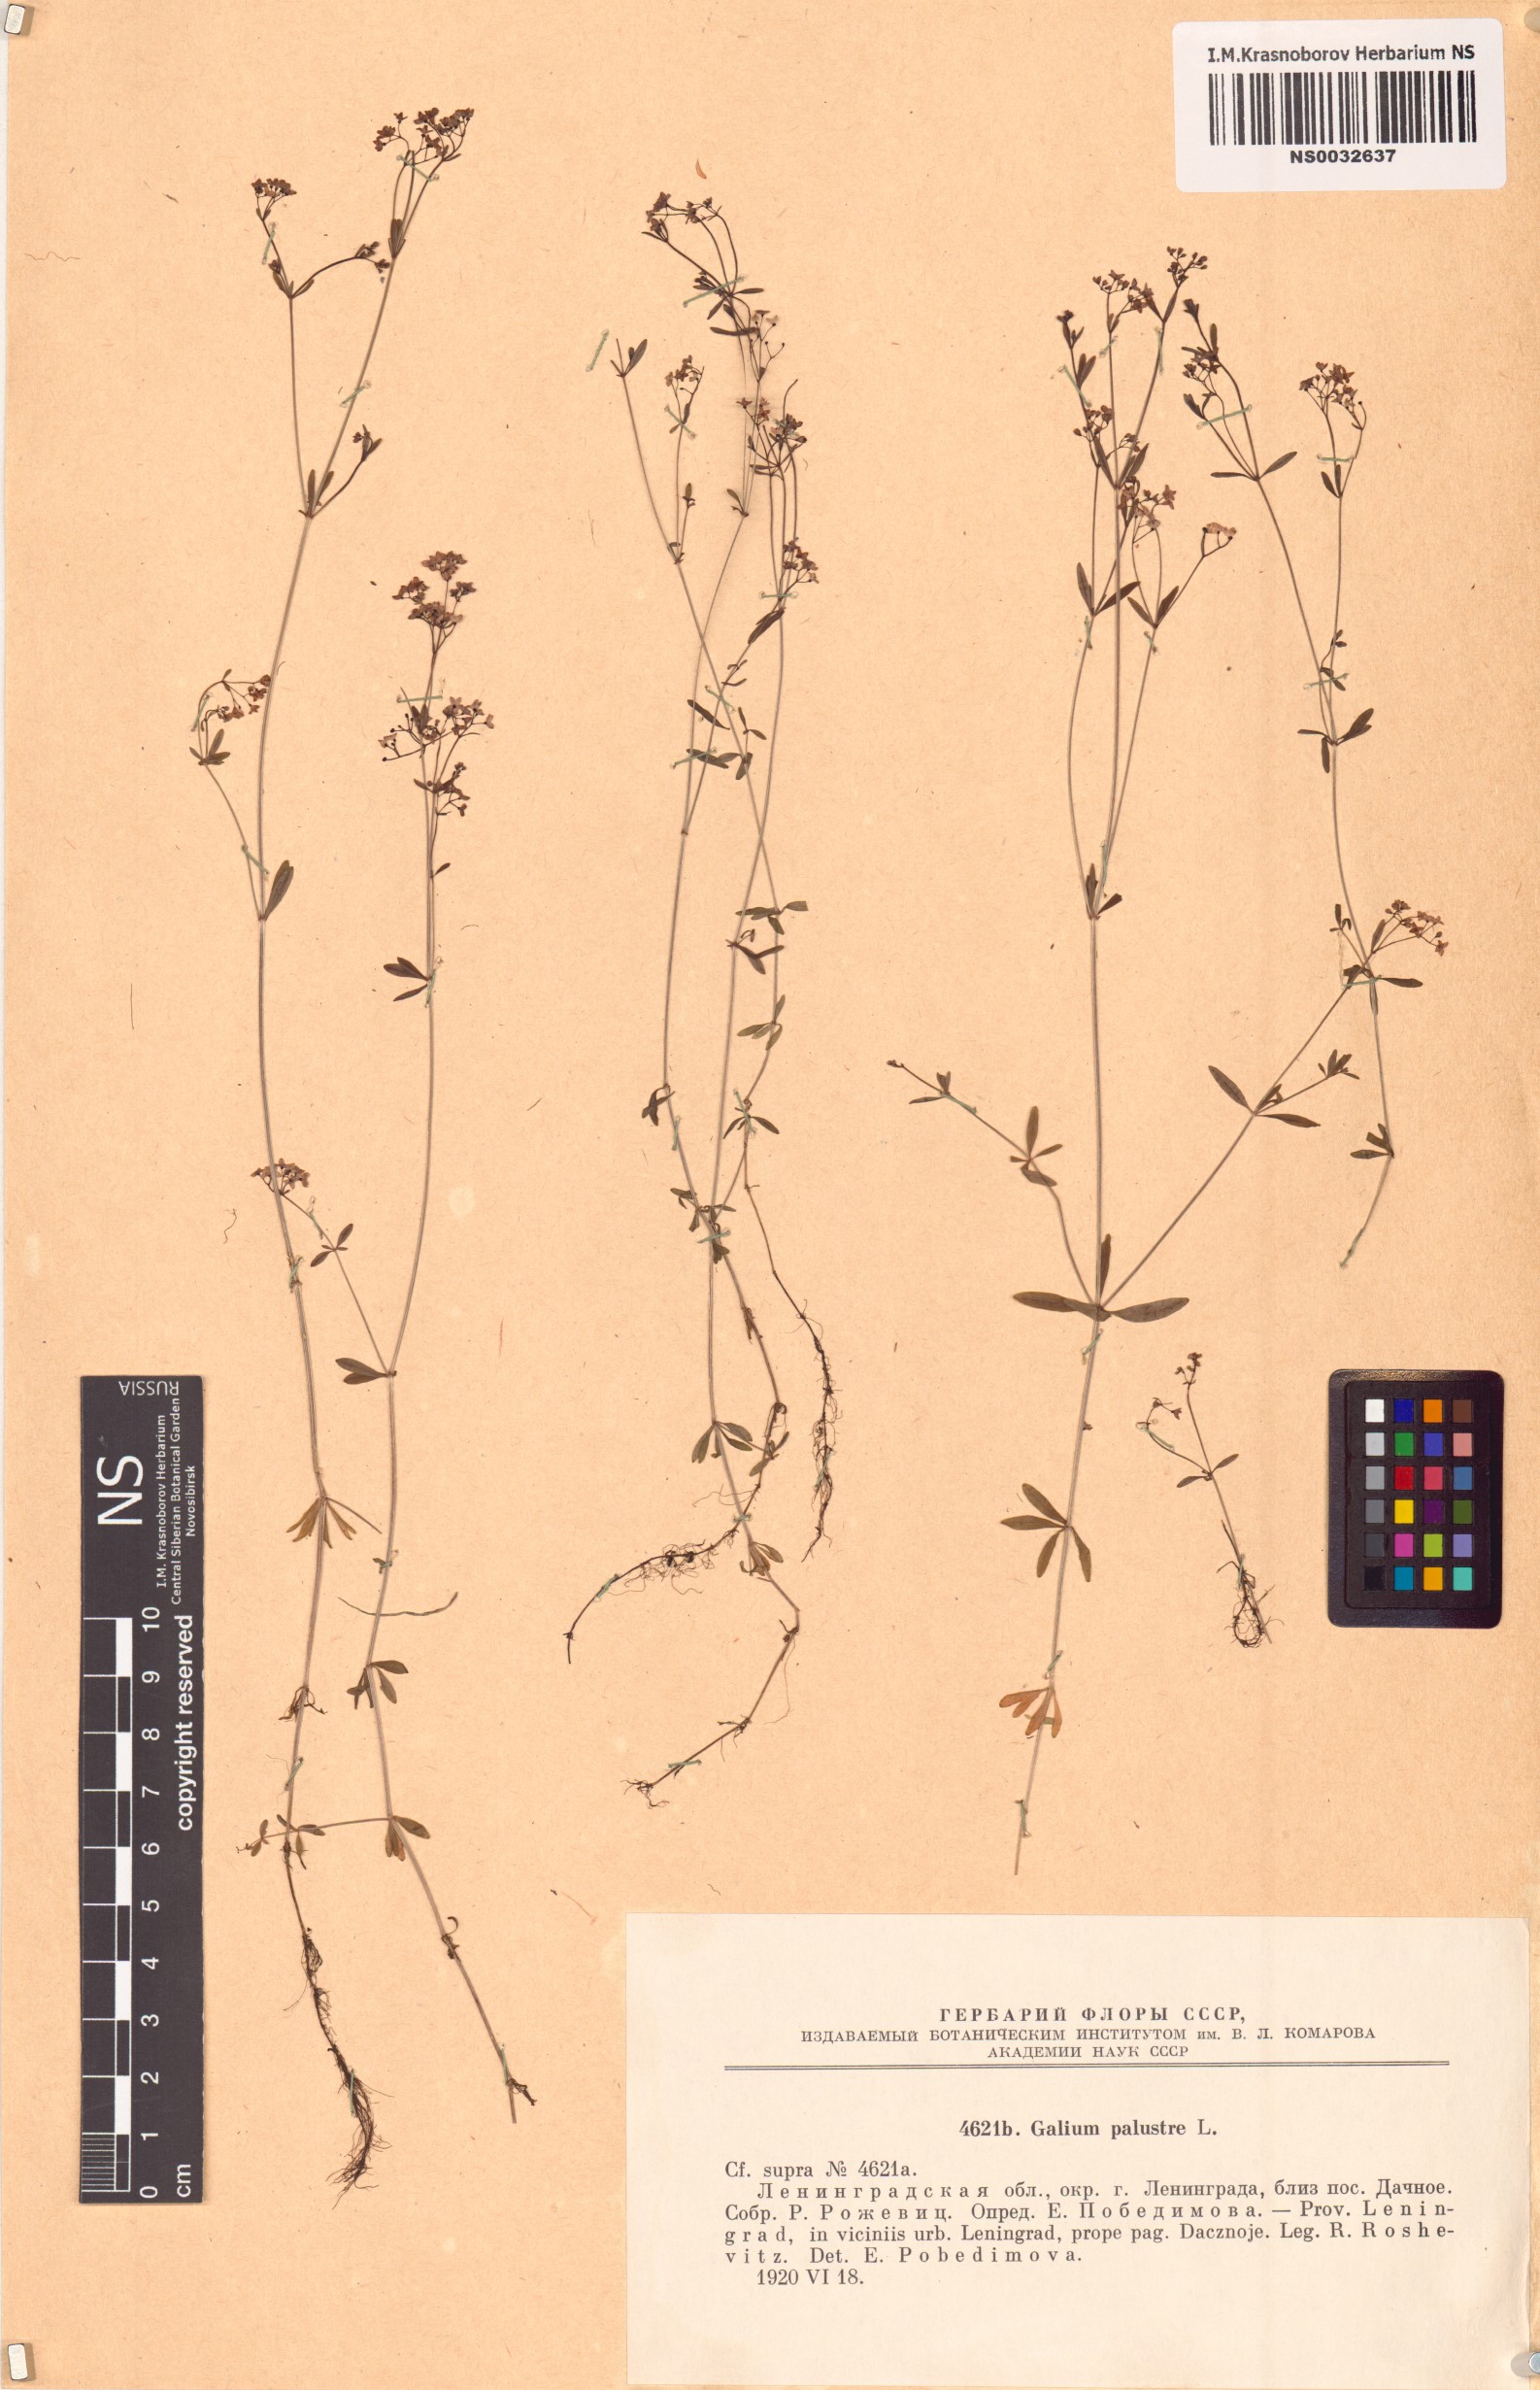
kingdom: Plantae
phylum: Tracheophyta
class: Magnoliopsida
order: Gentianales
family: Rubiaceae
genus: Galium
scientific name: Galium palustre
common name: Common marsh-bedstraw
